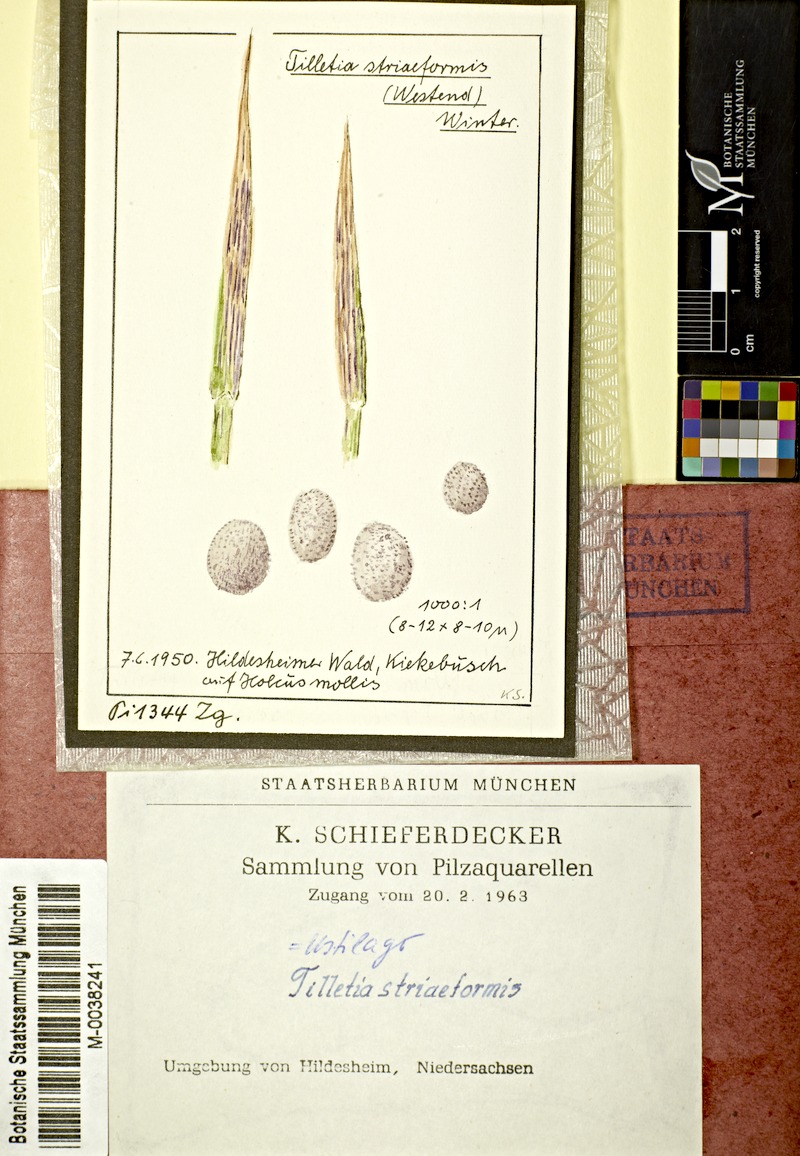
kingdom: Plantae
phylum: Tracheophyta
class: Liliopsida
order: Poales
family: Poaceae
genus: Holcus
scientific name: Holcus mollis
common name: Creeping velvetgrass
